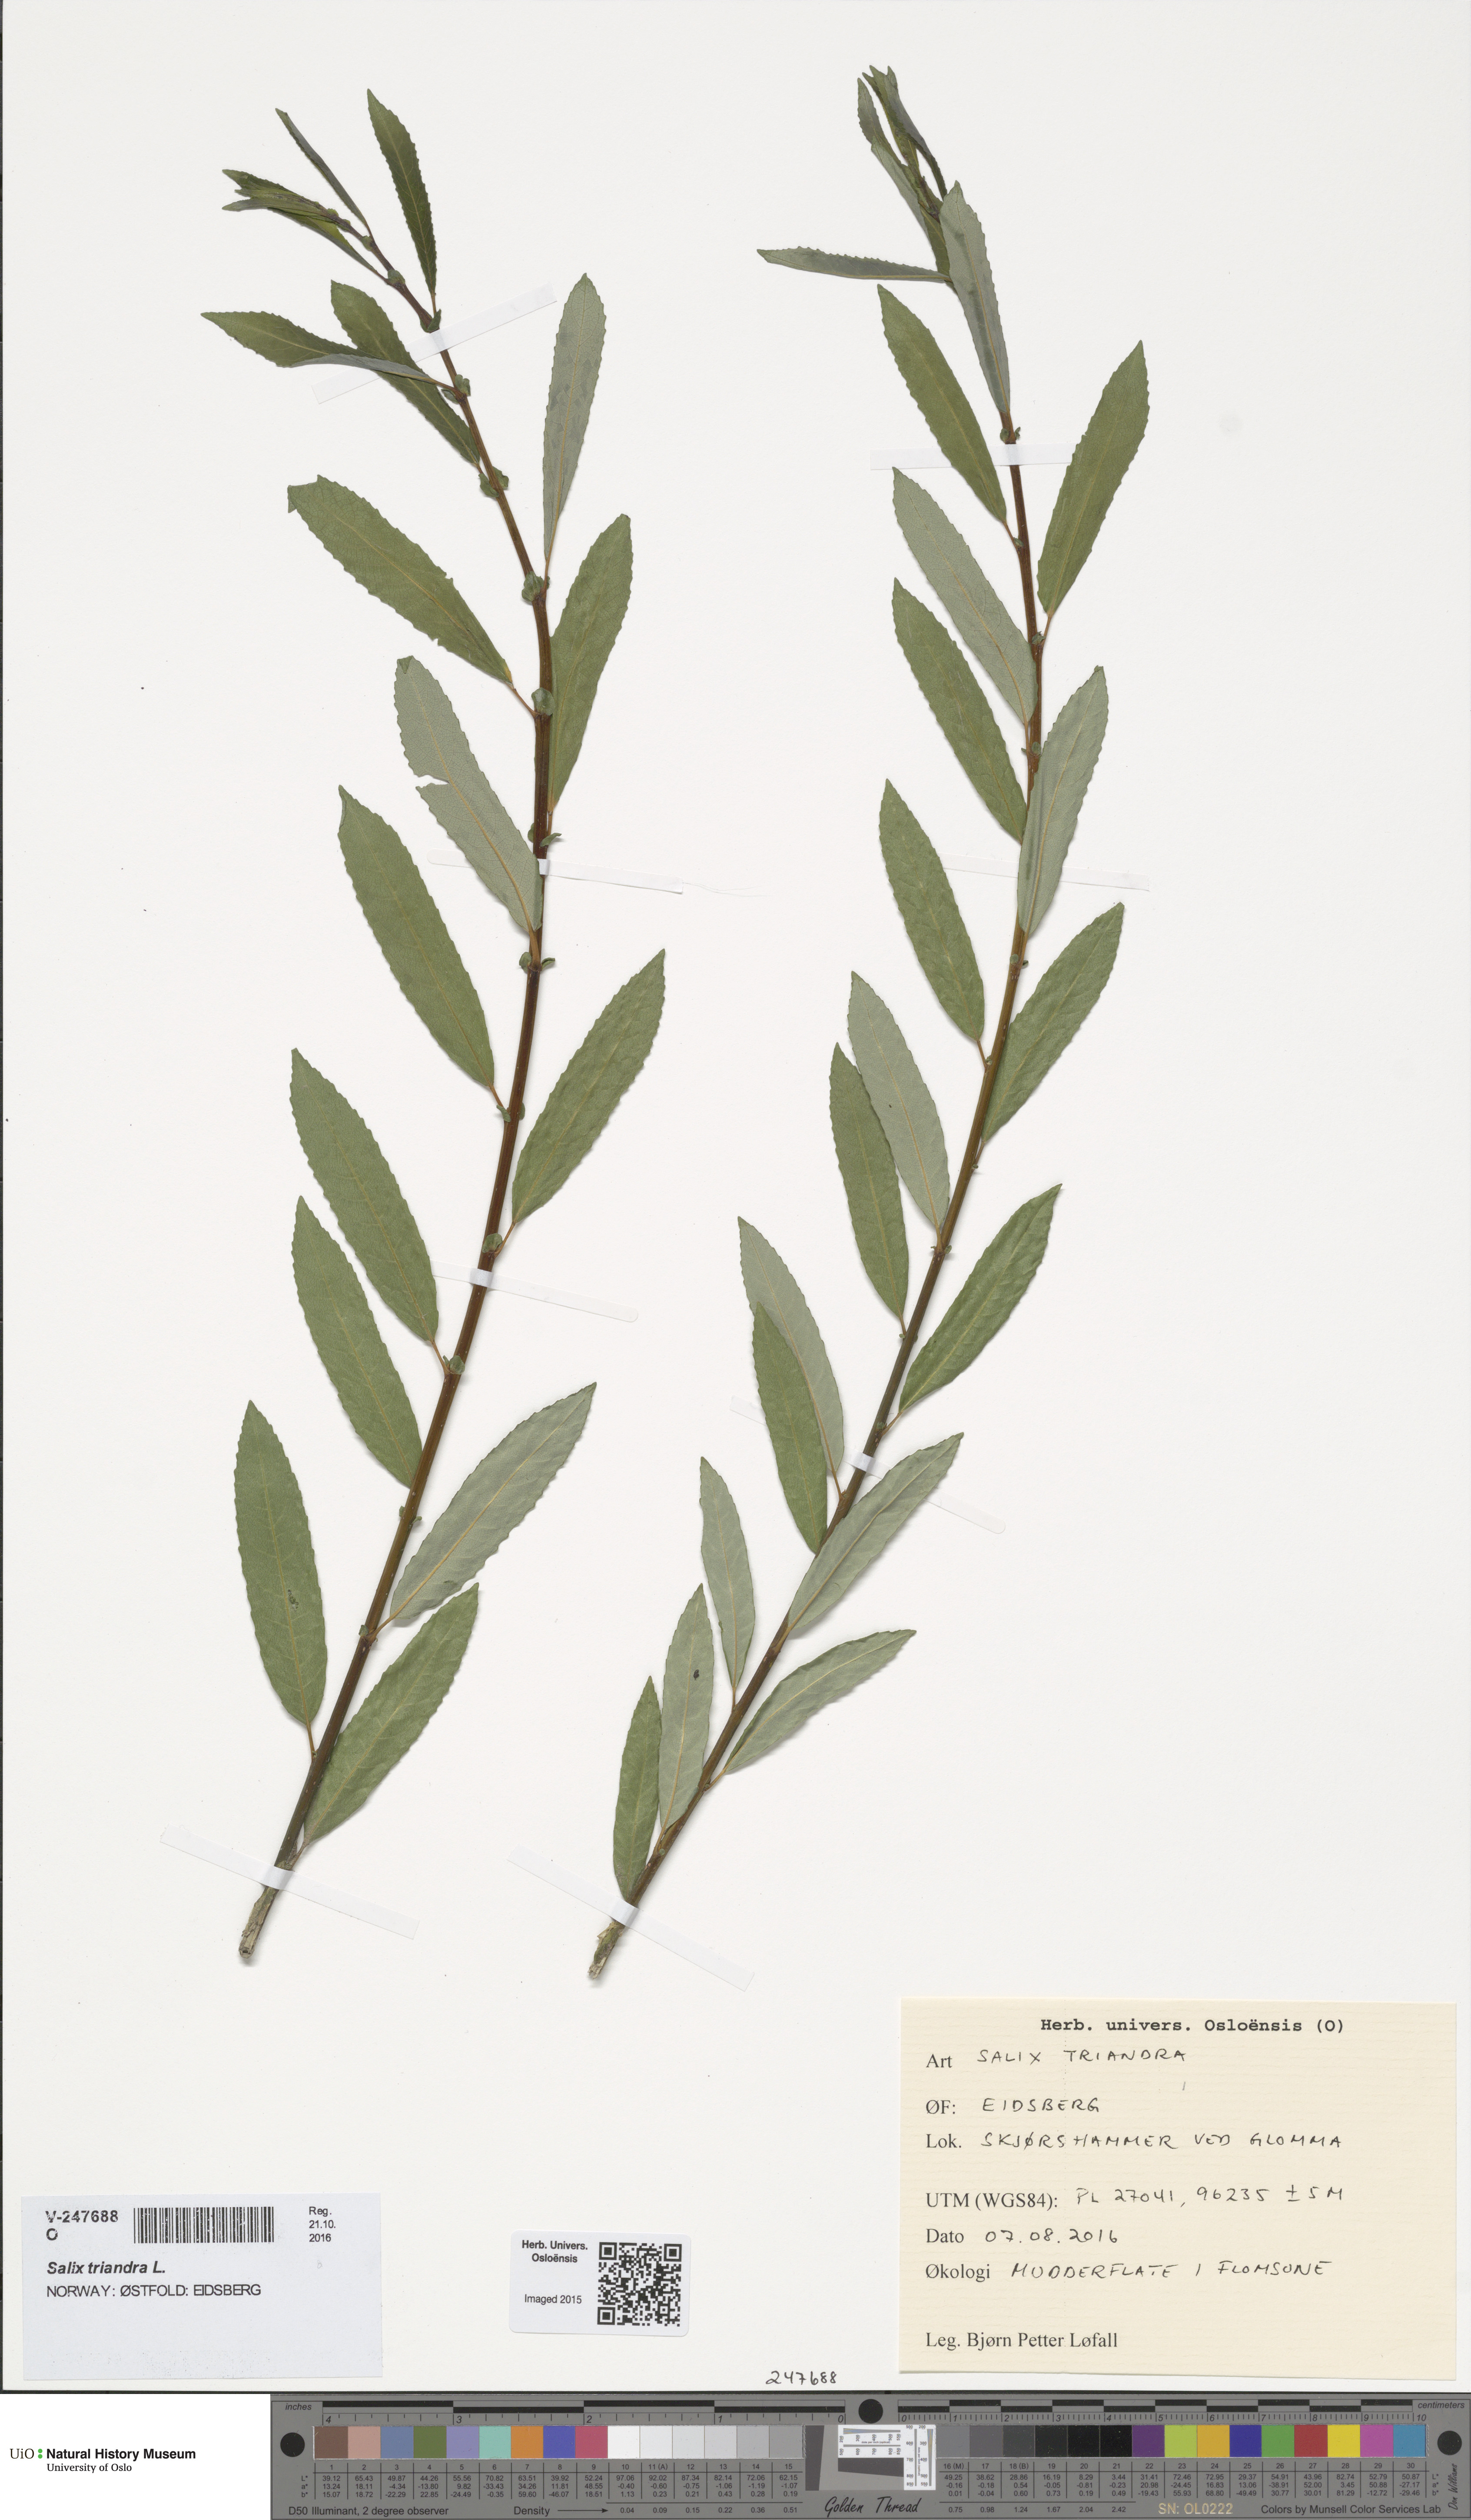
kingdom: Plantae
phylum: Tracheophyta
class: Magnoliopsida
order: Malpighiales
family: Salicaceae
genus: Salix
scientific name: Salix triandra
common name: Almond willow
